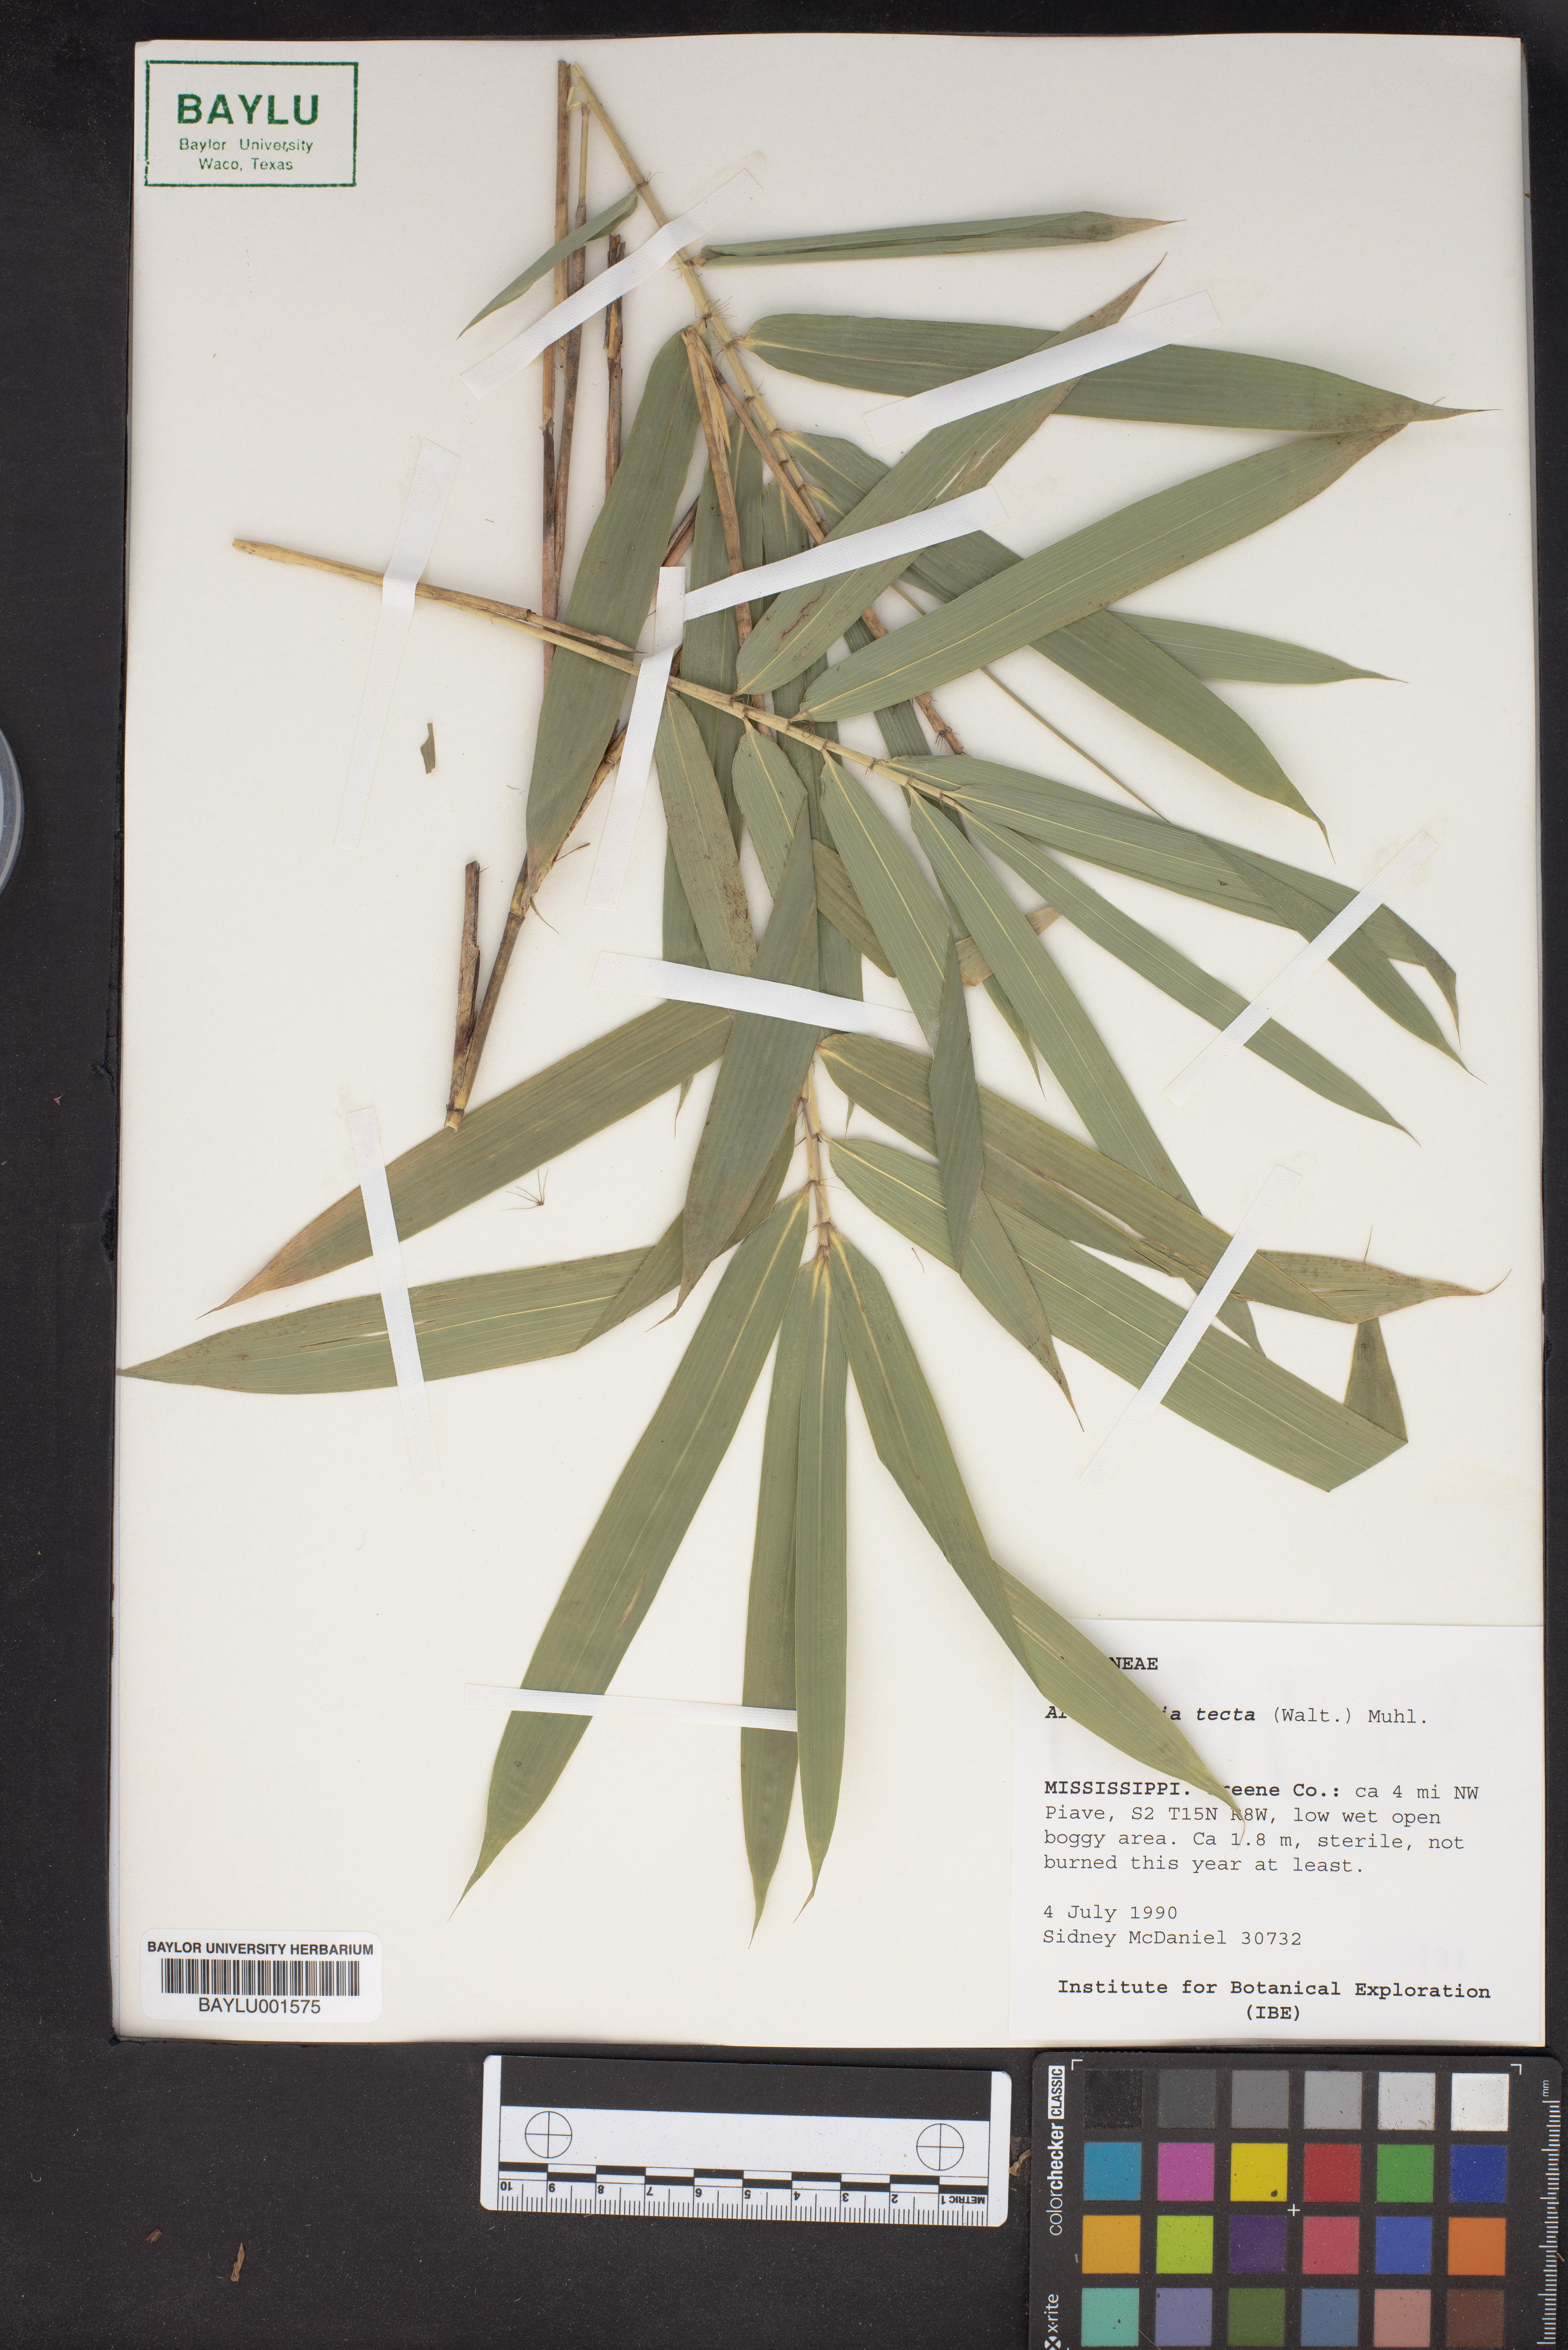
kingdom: Plantae
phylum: Tracheophyta
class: Liliopsida
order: Poales
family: Poaceae
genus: Arundinaria
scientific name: Arundinaria tecta
